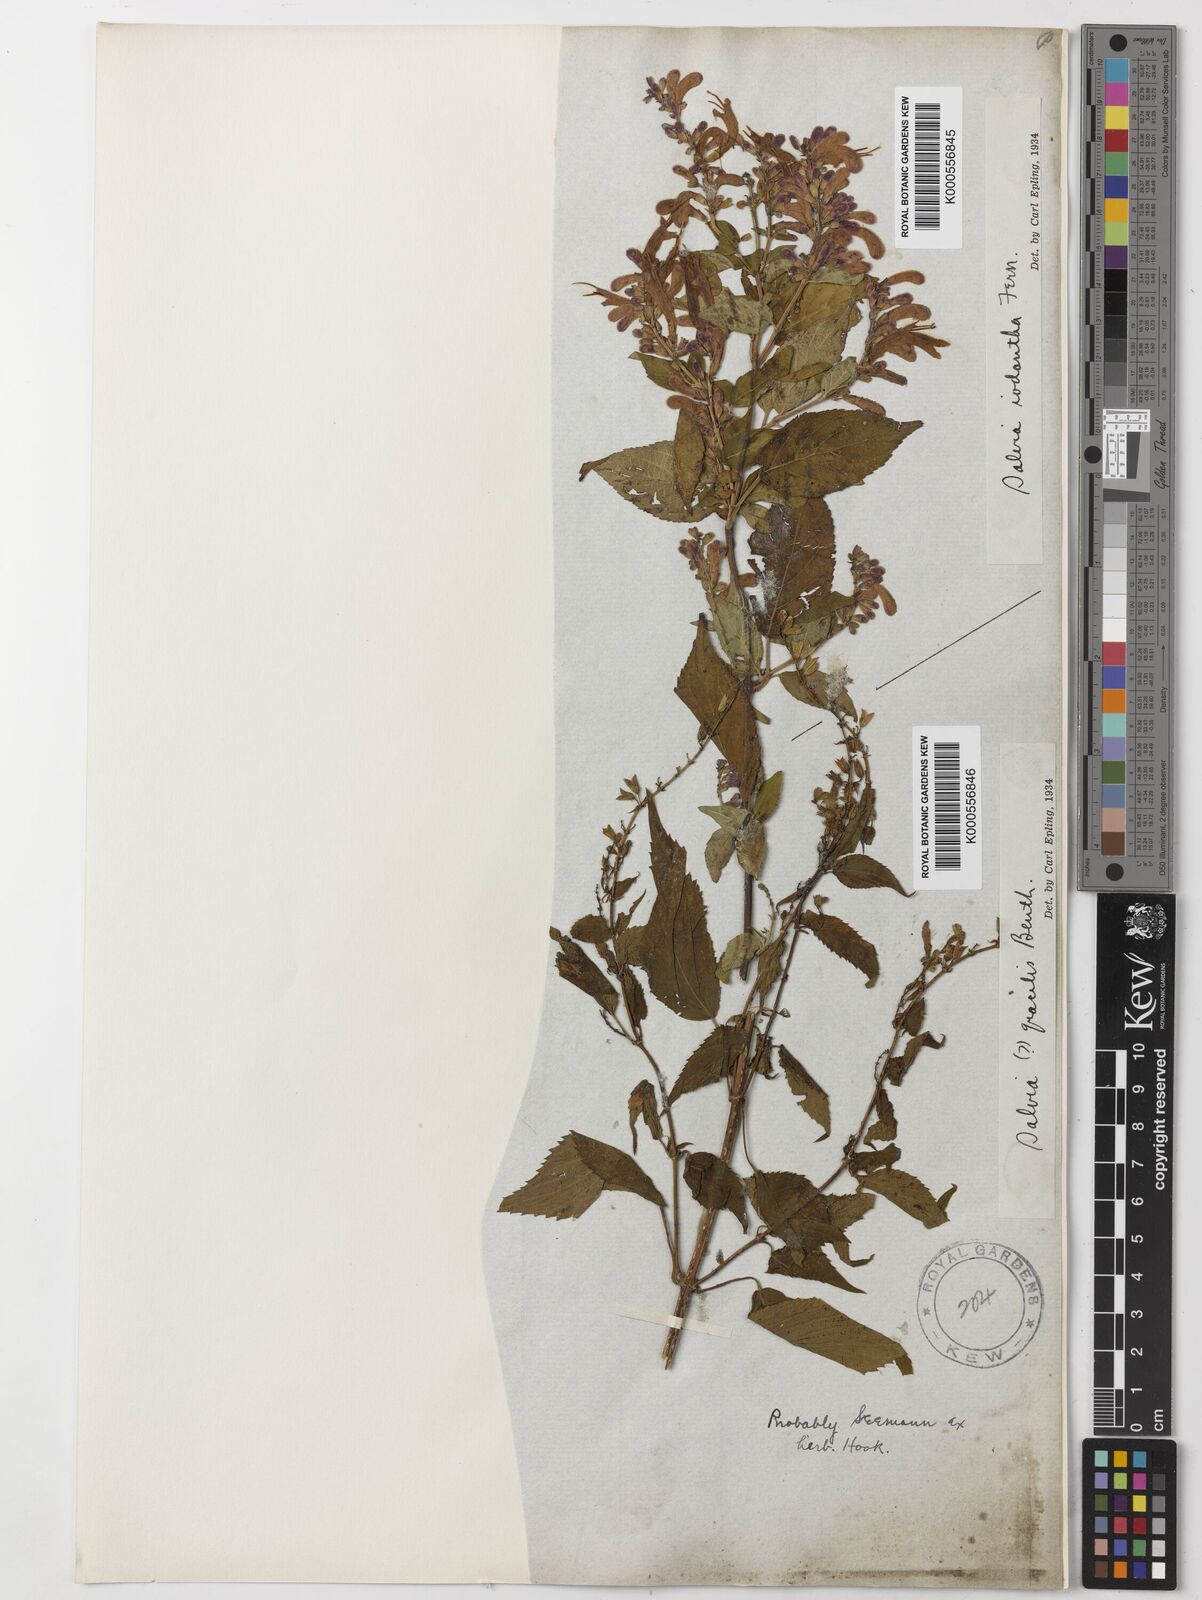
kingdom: Plantae
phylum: Tracheophyta
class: Magnoliopsida
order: Lamiales
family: Lamiaceae
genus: Salvia
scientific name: Salvia iodantha
